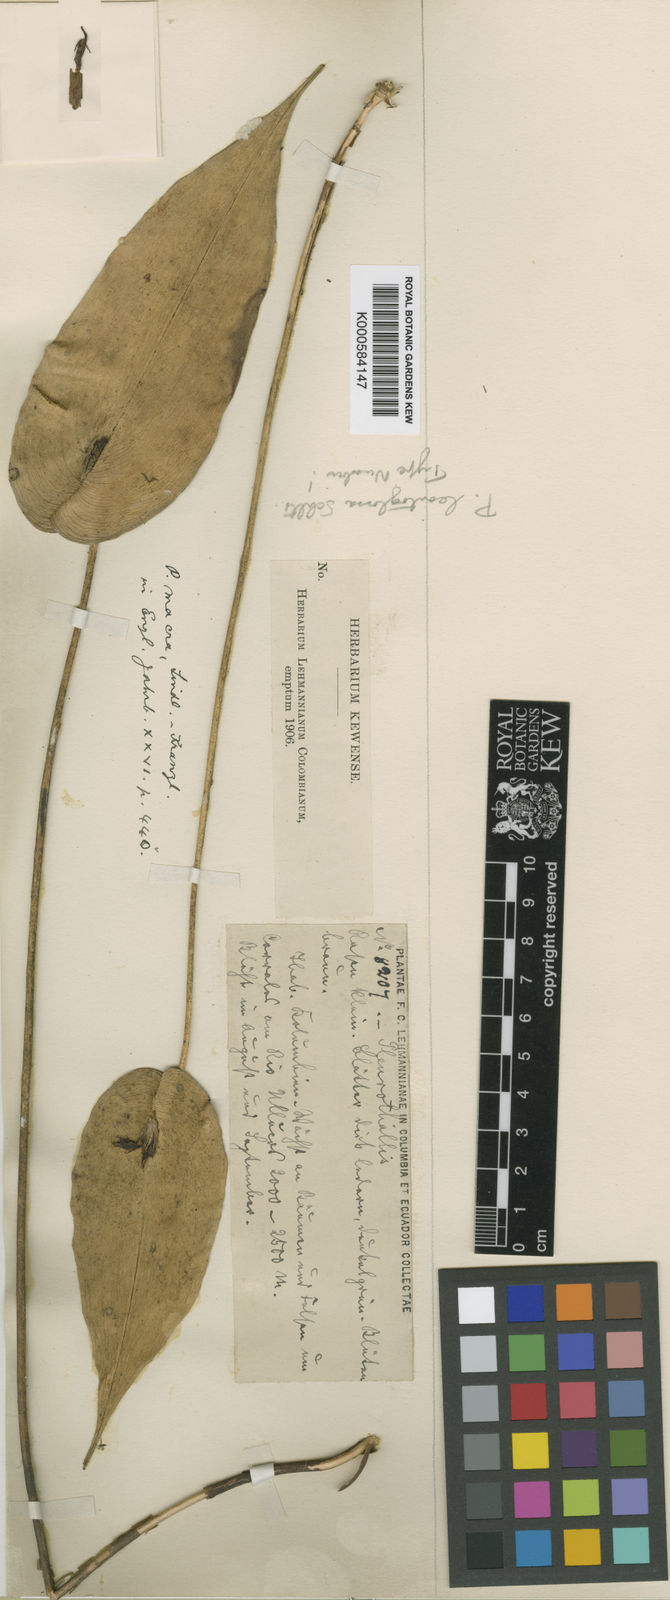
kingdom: Plantae
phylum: Tracheophyta
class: Liliopsida
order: Asparagales
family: Orchidaceae
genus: Pleurothallis
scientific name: Pleurothallis coriacardia
